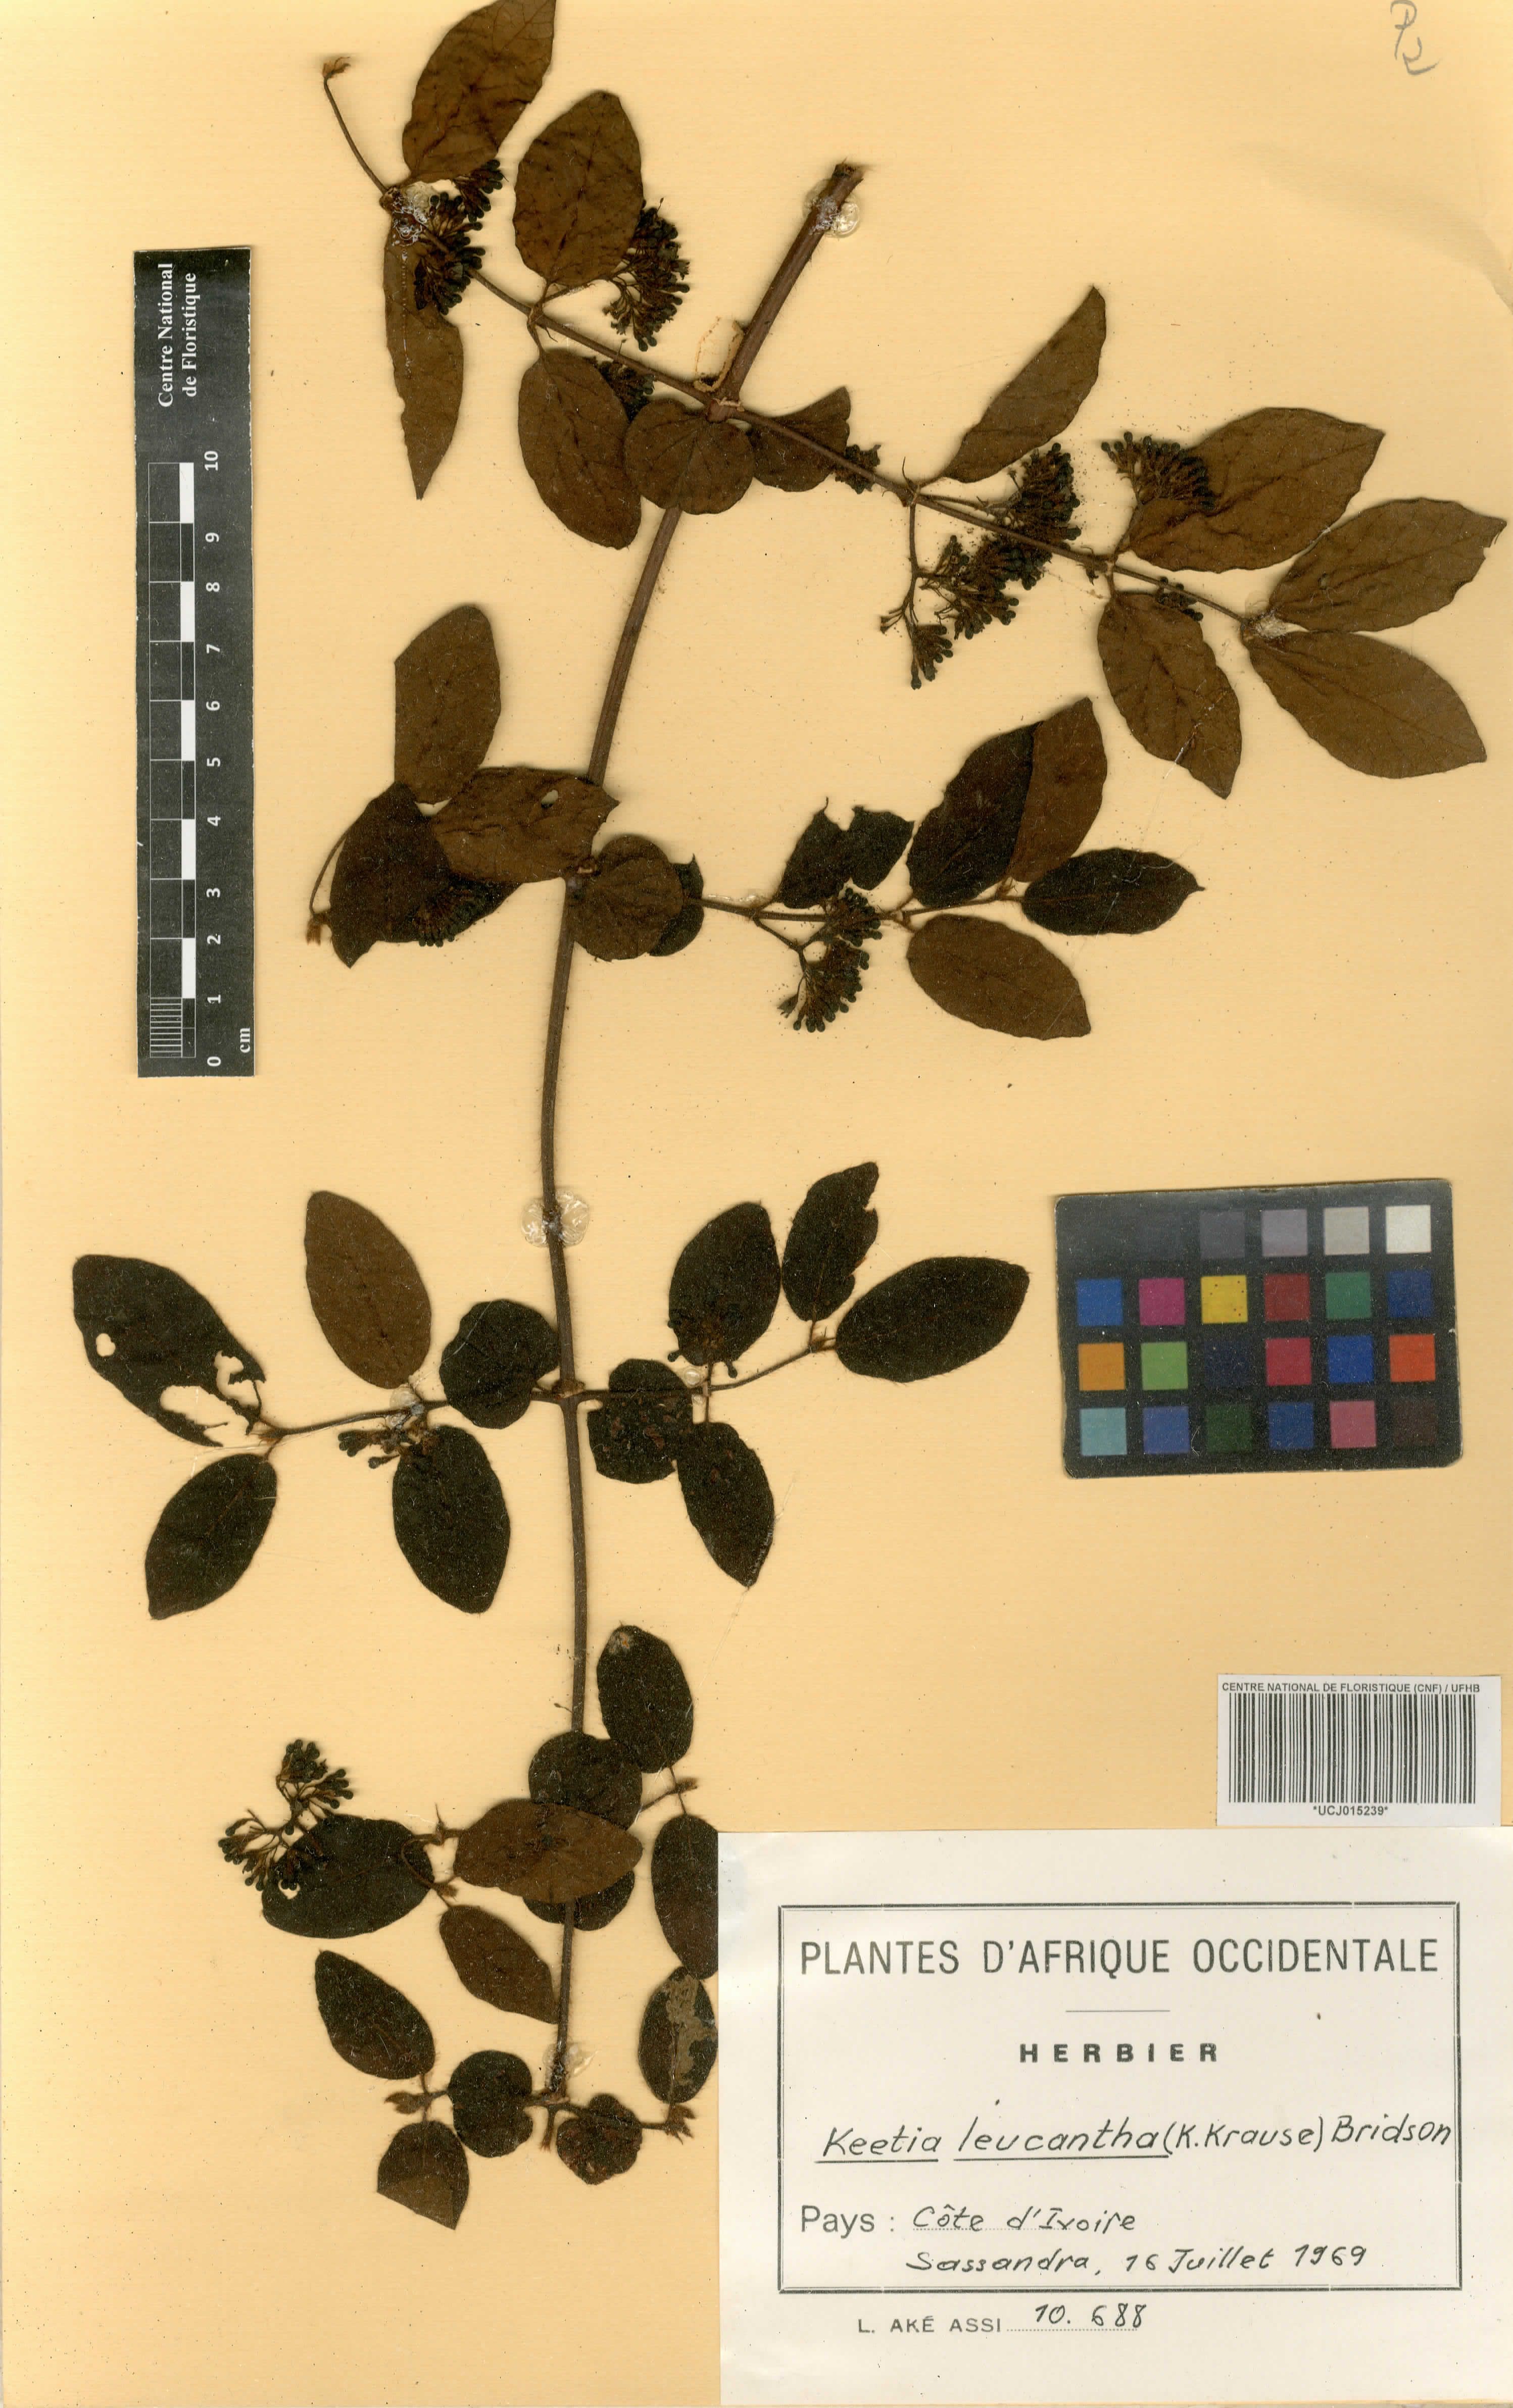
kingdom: Plantae
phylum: Tracheophyta
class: Magnoliopsida
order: Gentianales
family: Rubiaceae
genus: Keetia
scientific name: Keetia leucantha
